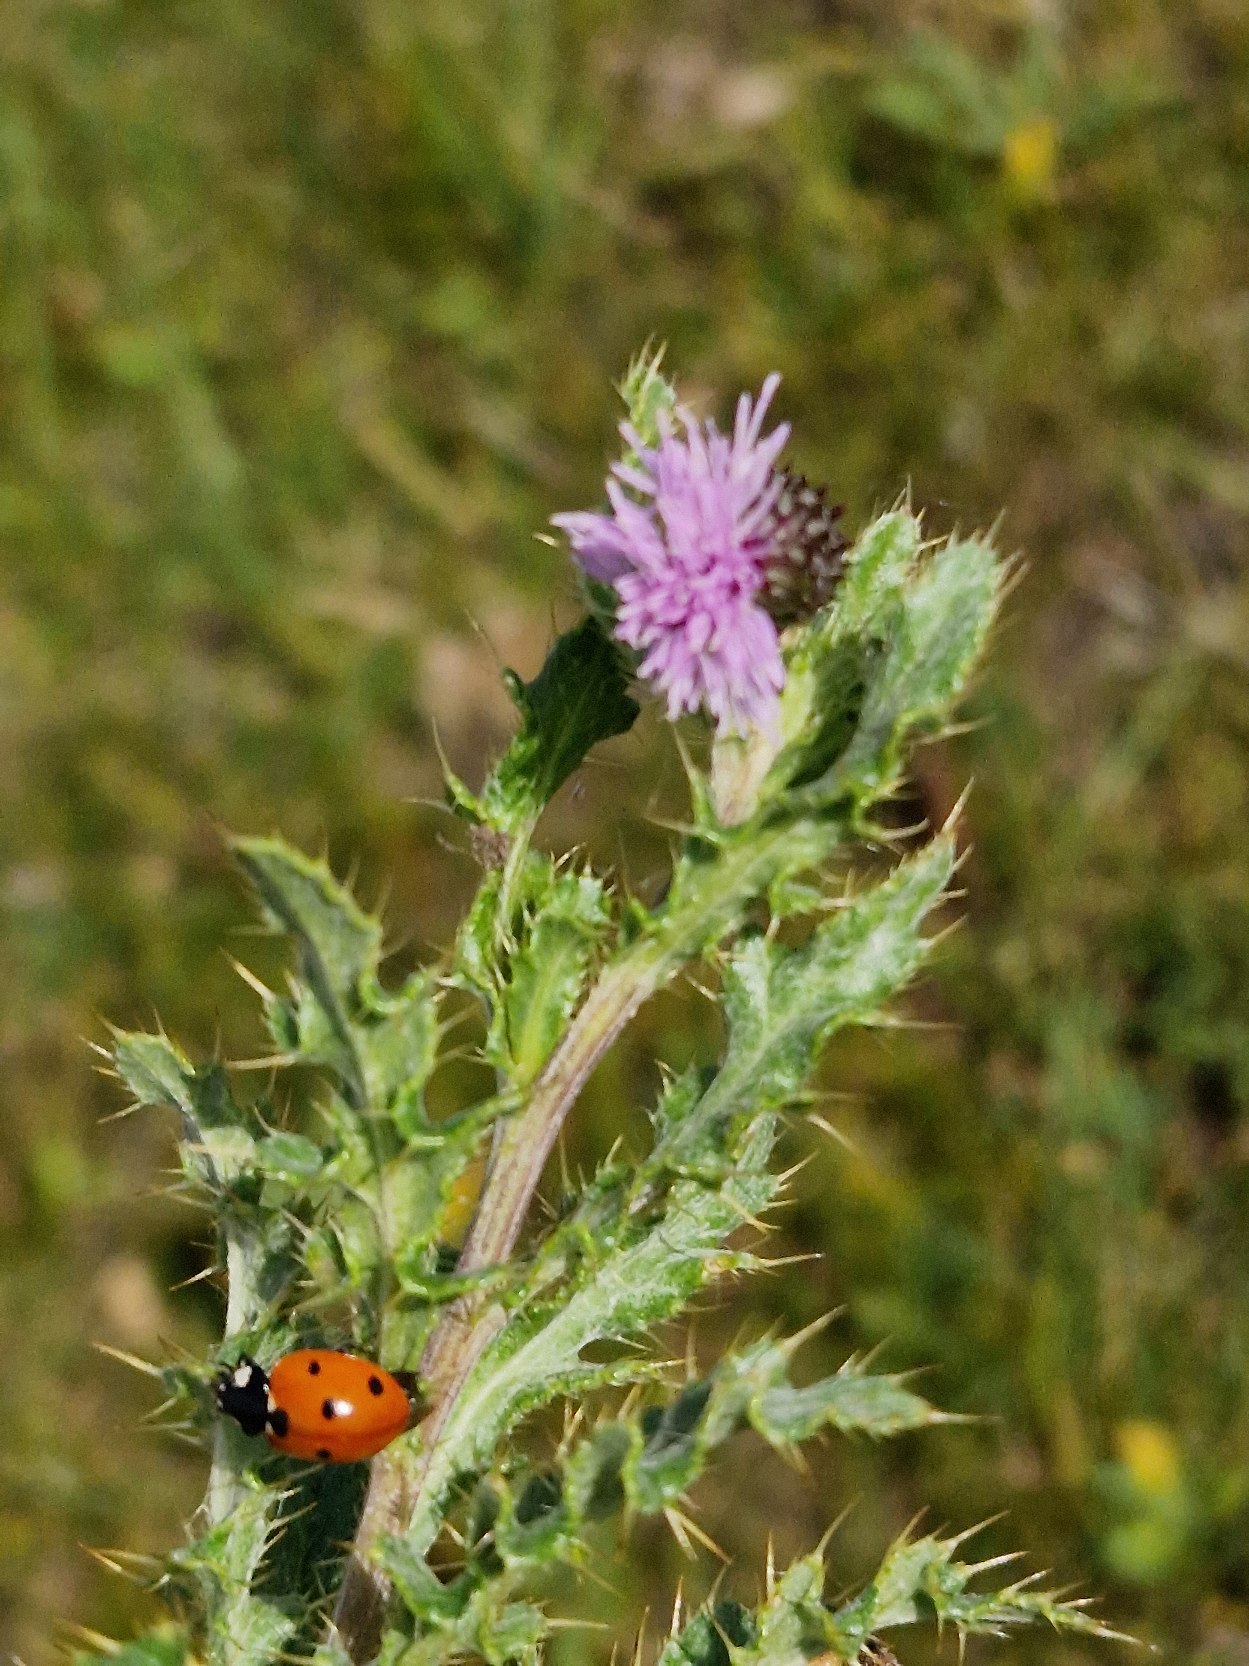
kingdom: Plantae
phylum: Tracheophyta
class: Magnoliopsida
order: Asterales
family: Asteraceae
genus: Cirsium
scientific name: Cirsium arvense
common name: Ager-tidsel
